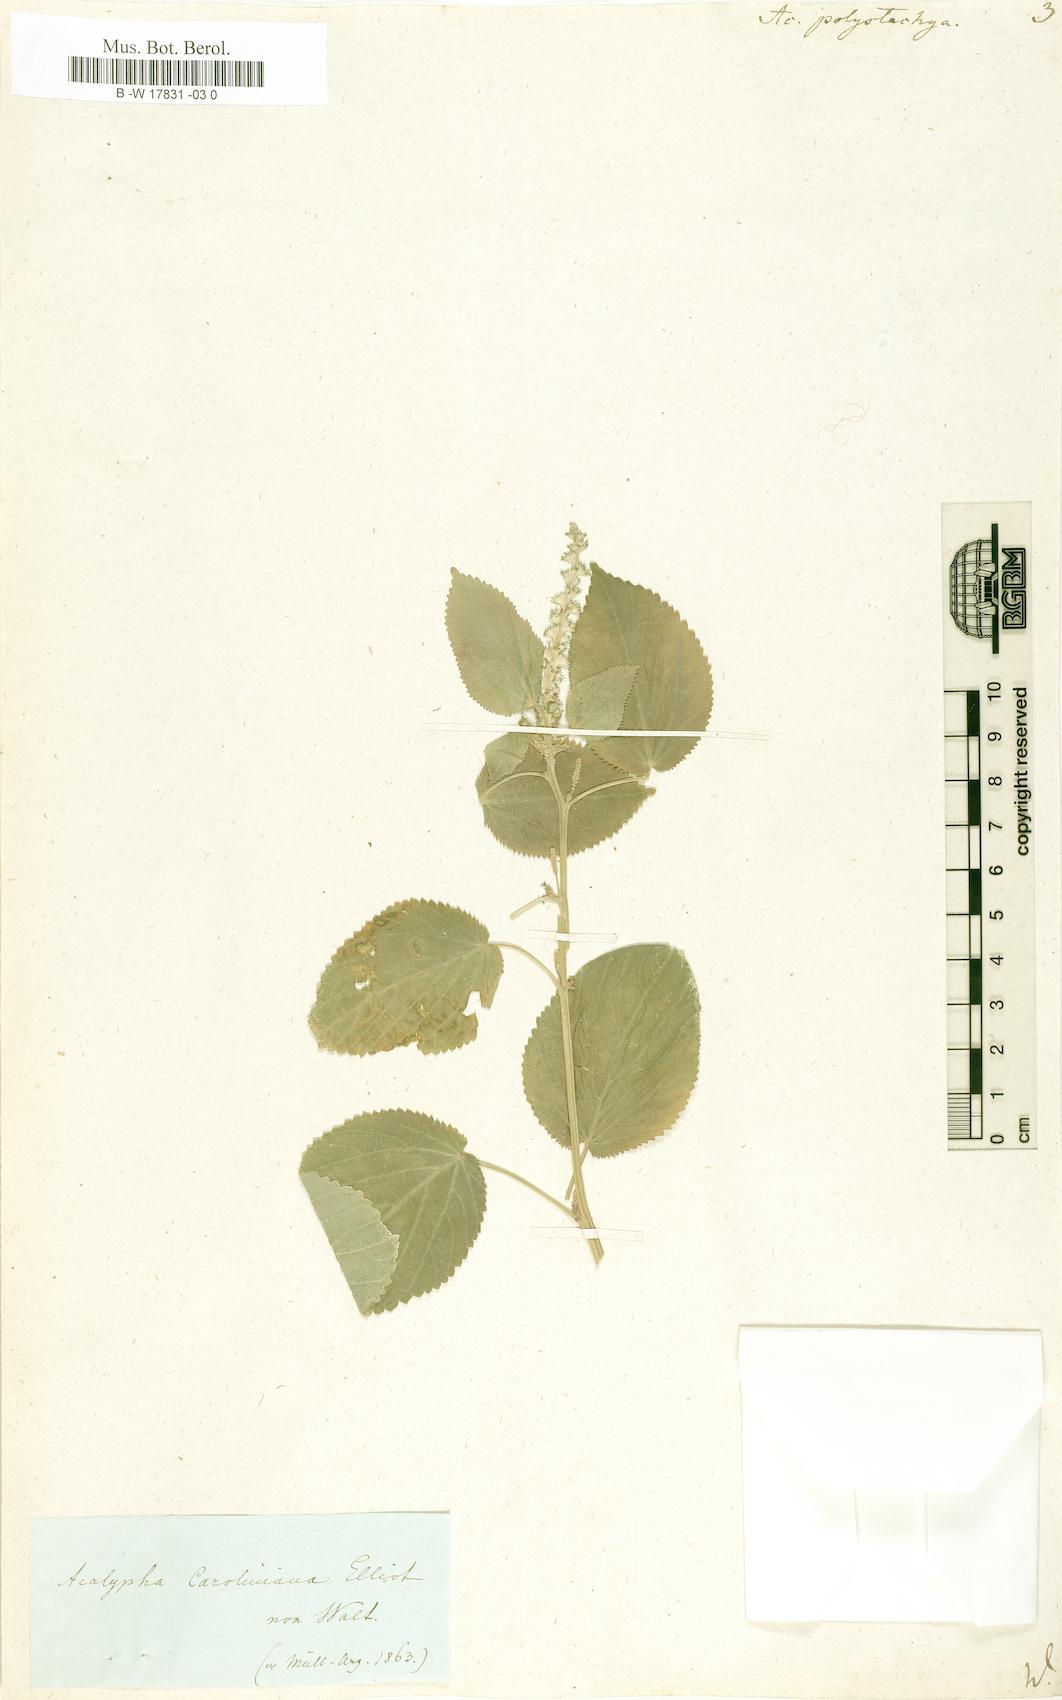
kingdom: Plantae
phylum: Tracheophyta
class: Magnoliopsida
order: Malpighiales
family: Euphorbiaceae
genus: Acalypha
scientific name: Acalypha polystachya
